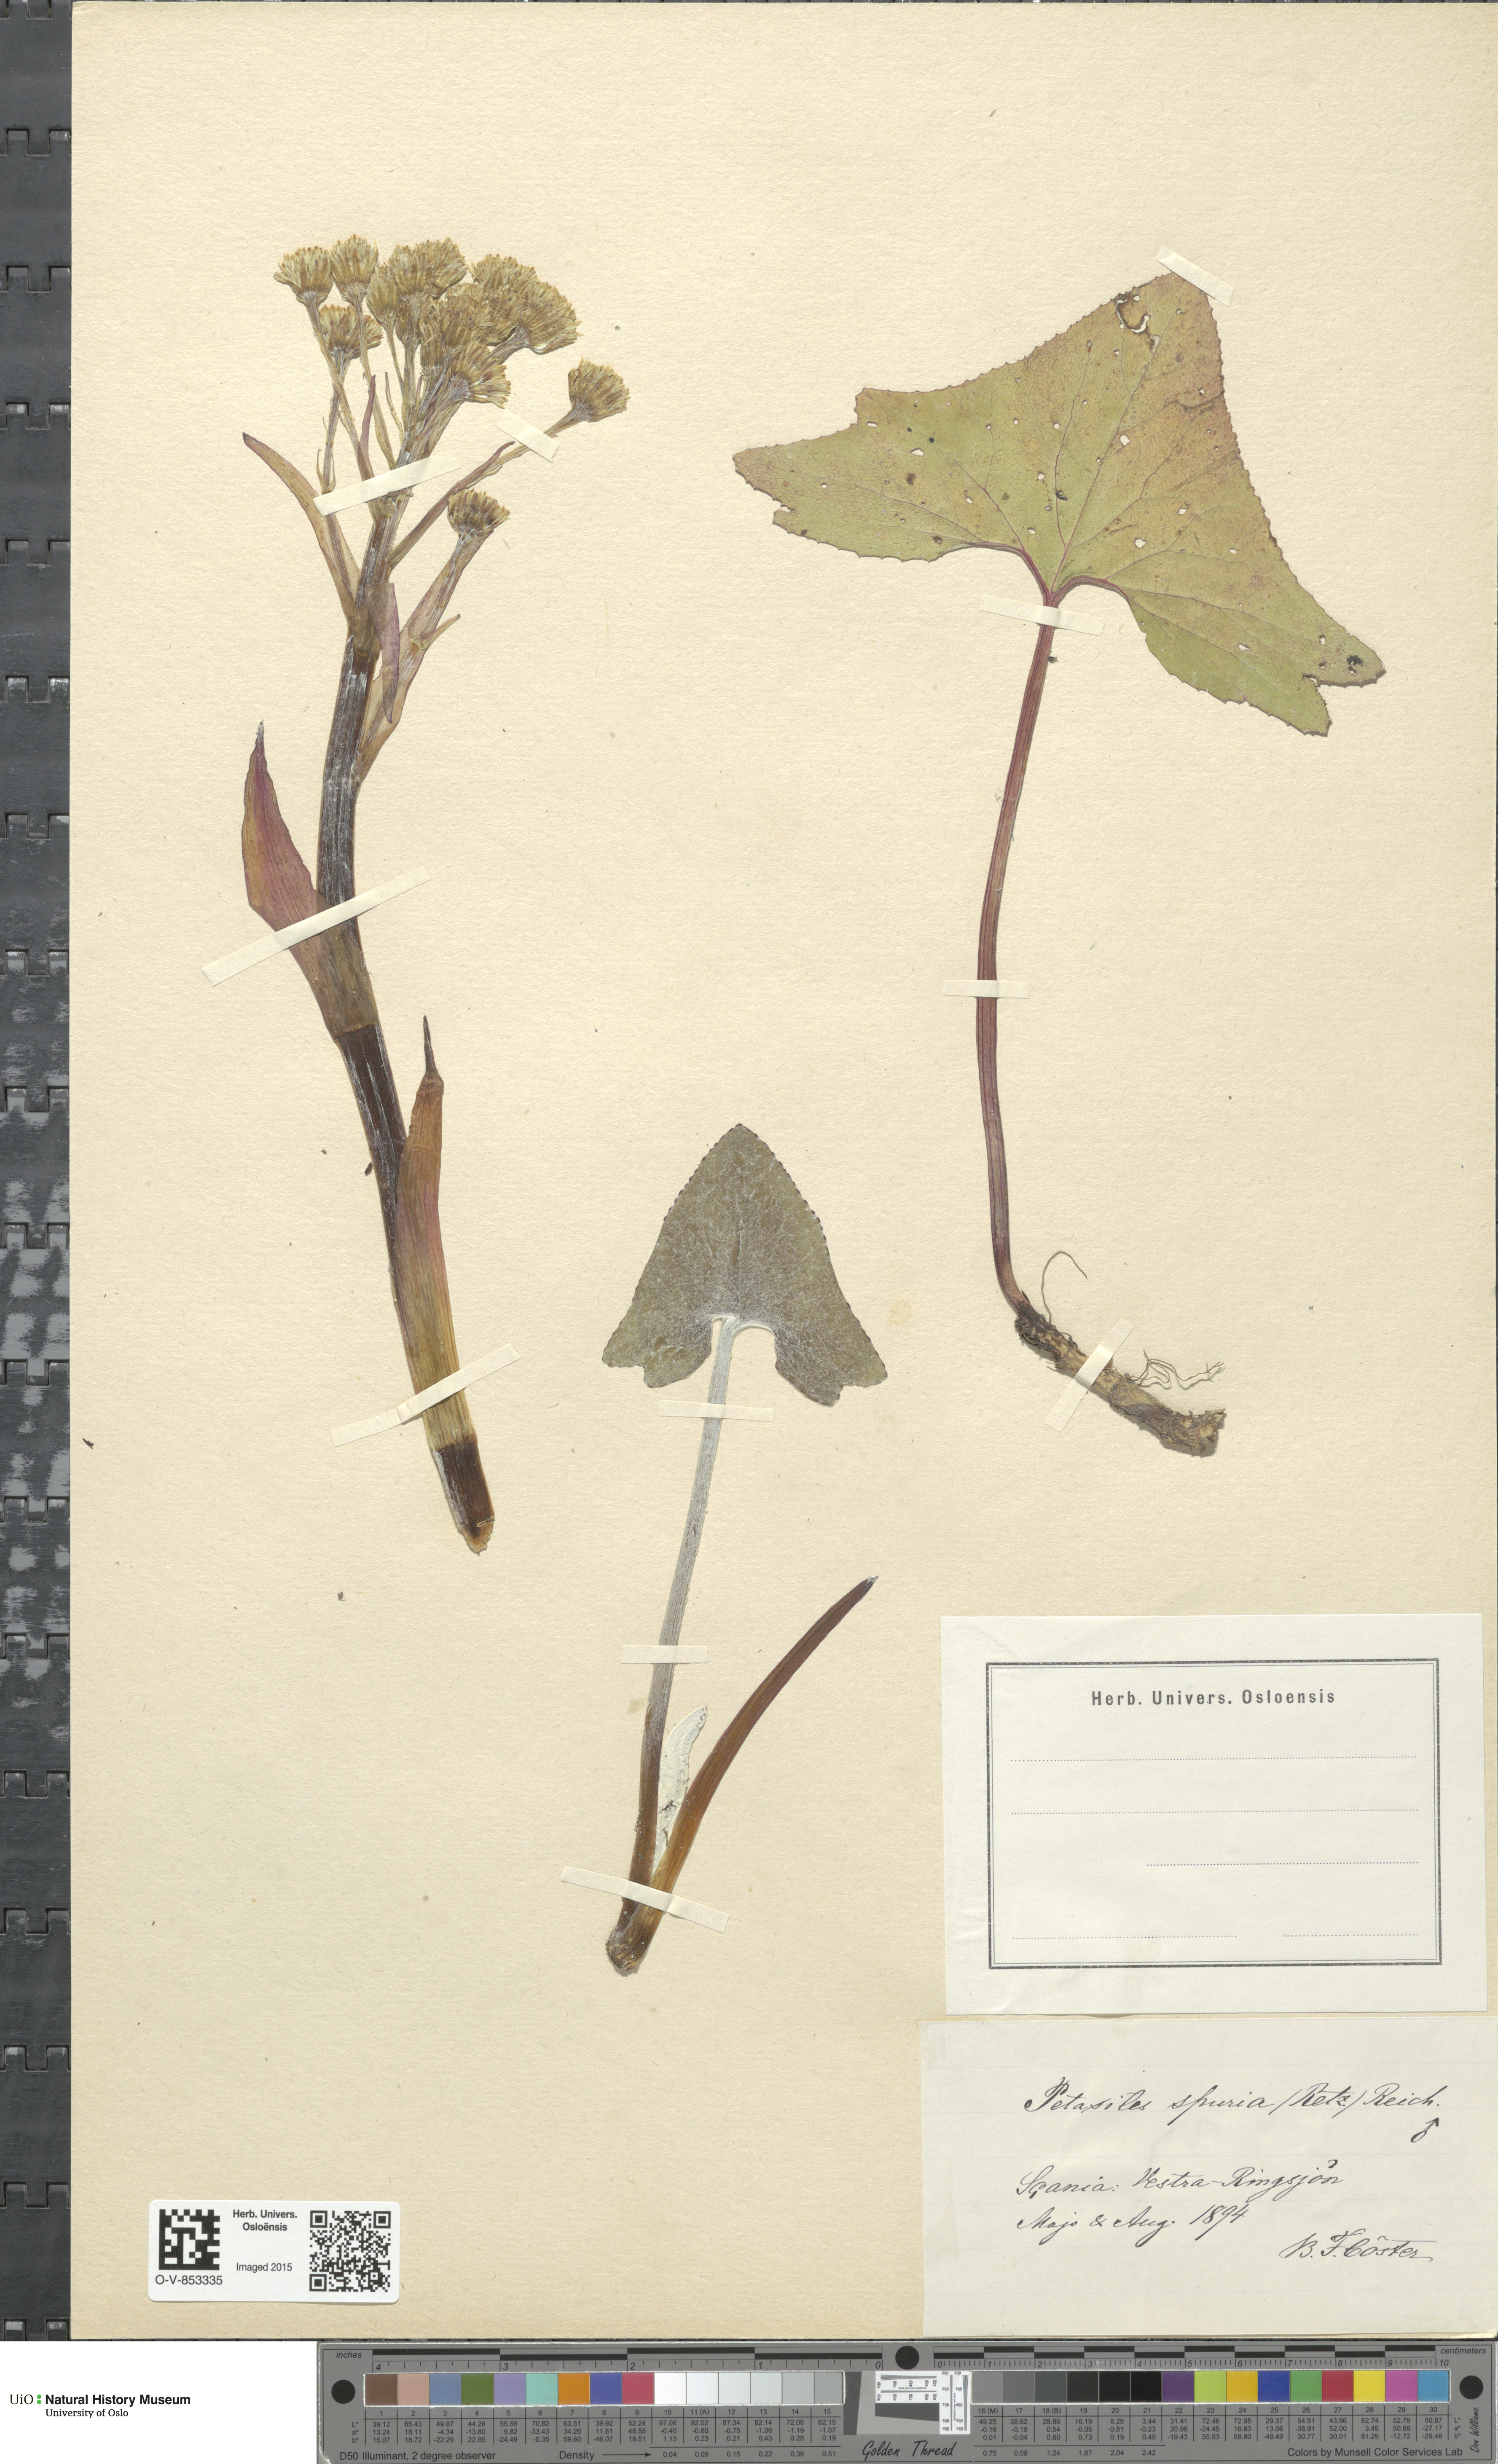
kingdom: Plantae
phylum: Tracheophyta
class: Magnoliopsida
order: Asterales
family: Asteraceae
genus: Petasites
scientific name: Petasites spurius
